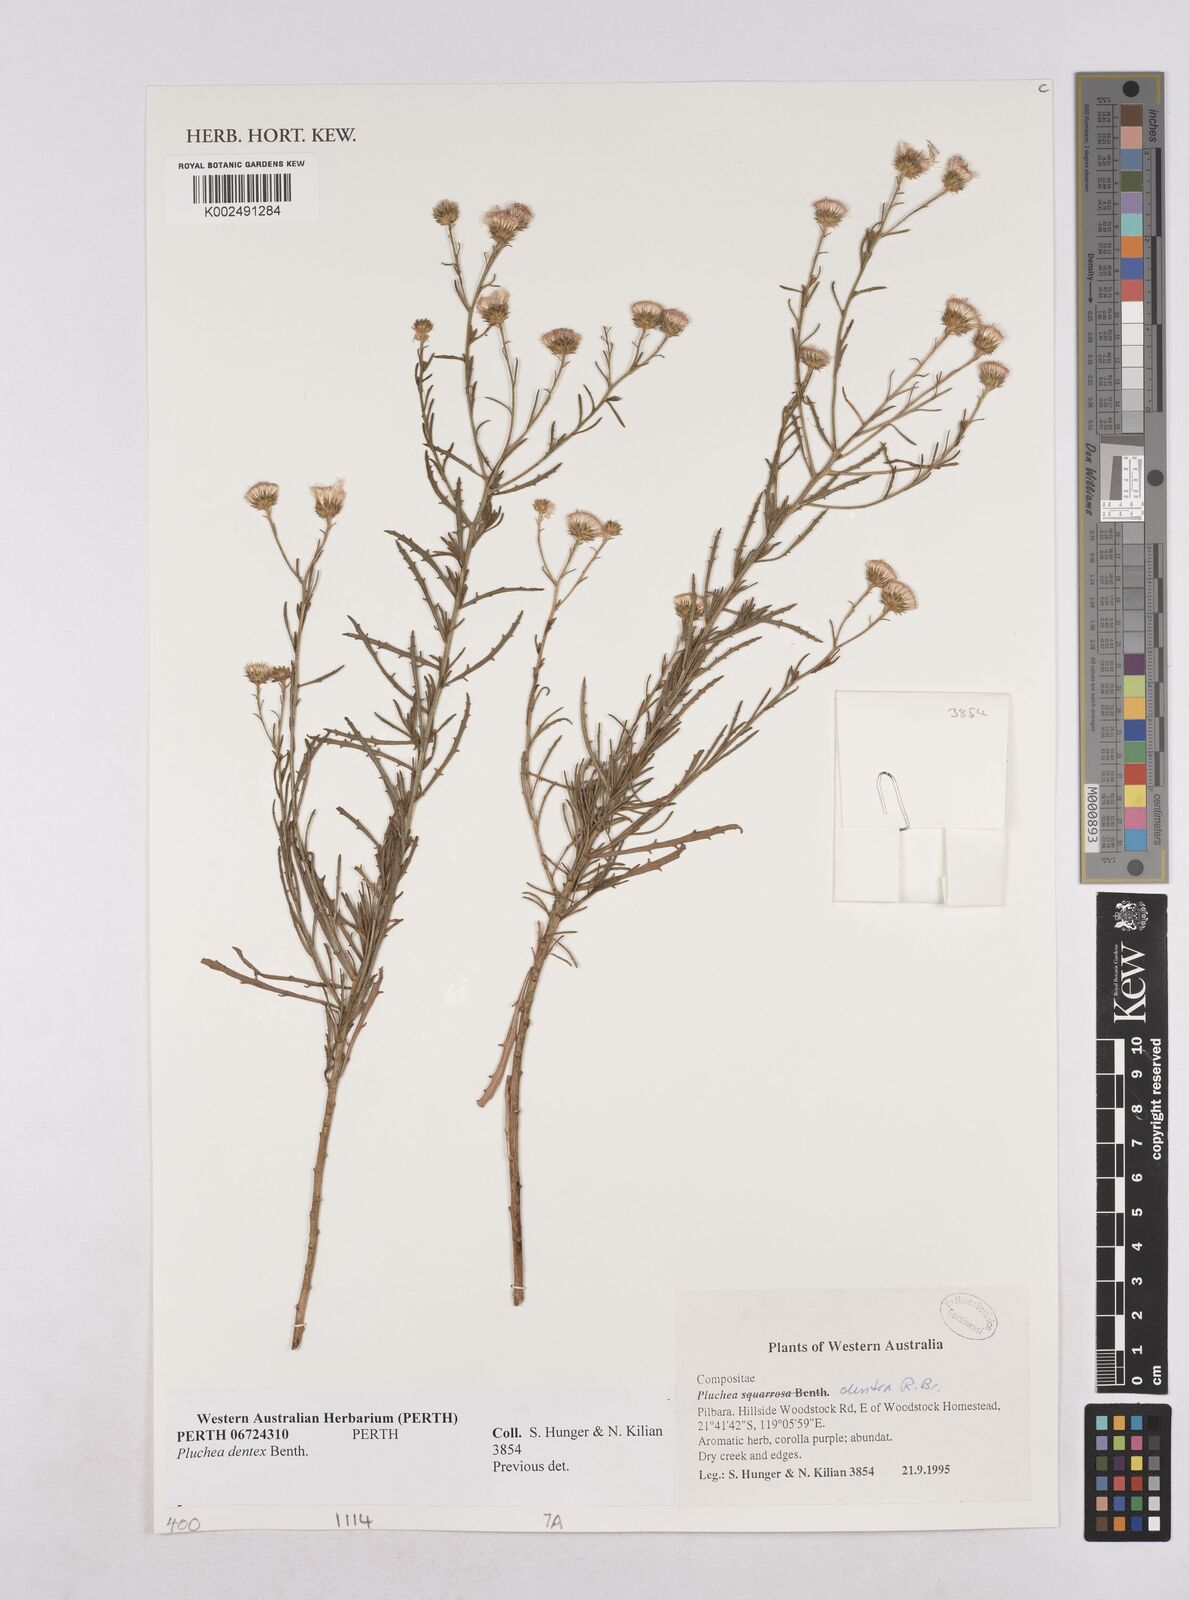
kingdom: Plantae
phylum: Tracheophyta
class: Magnoliopsida
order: Asterales
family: Asteraceae
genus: Pluchea
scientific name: Pluchea dentex
